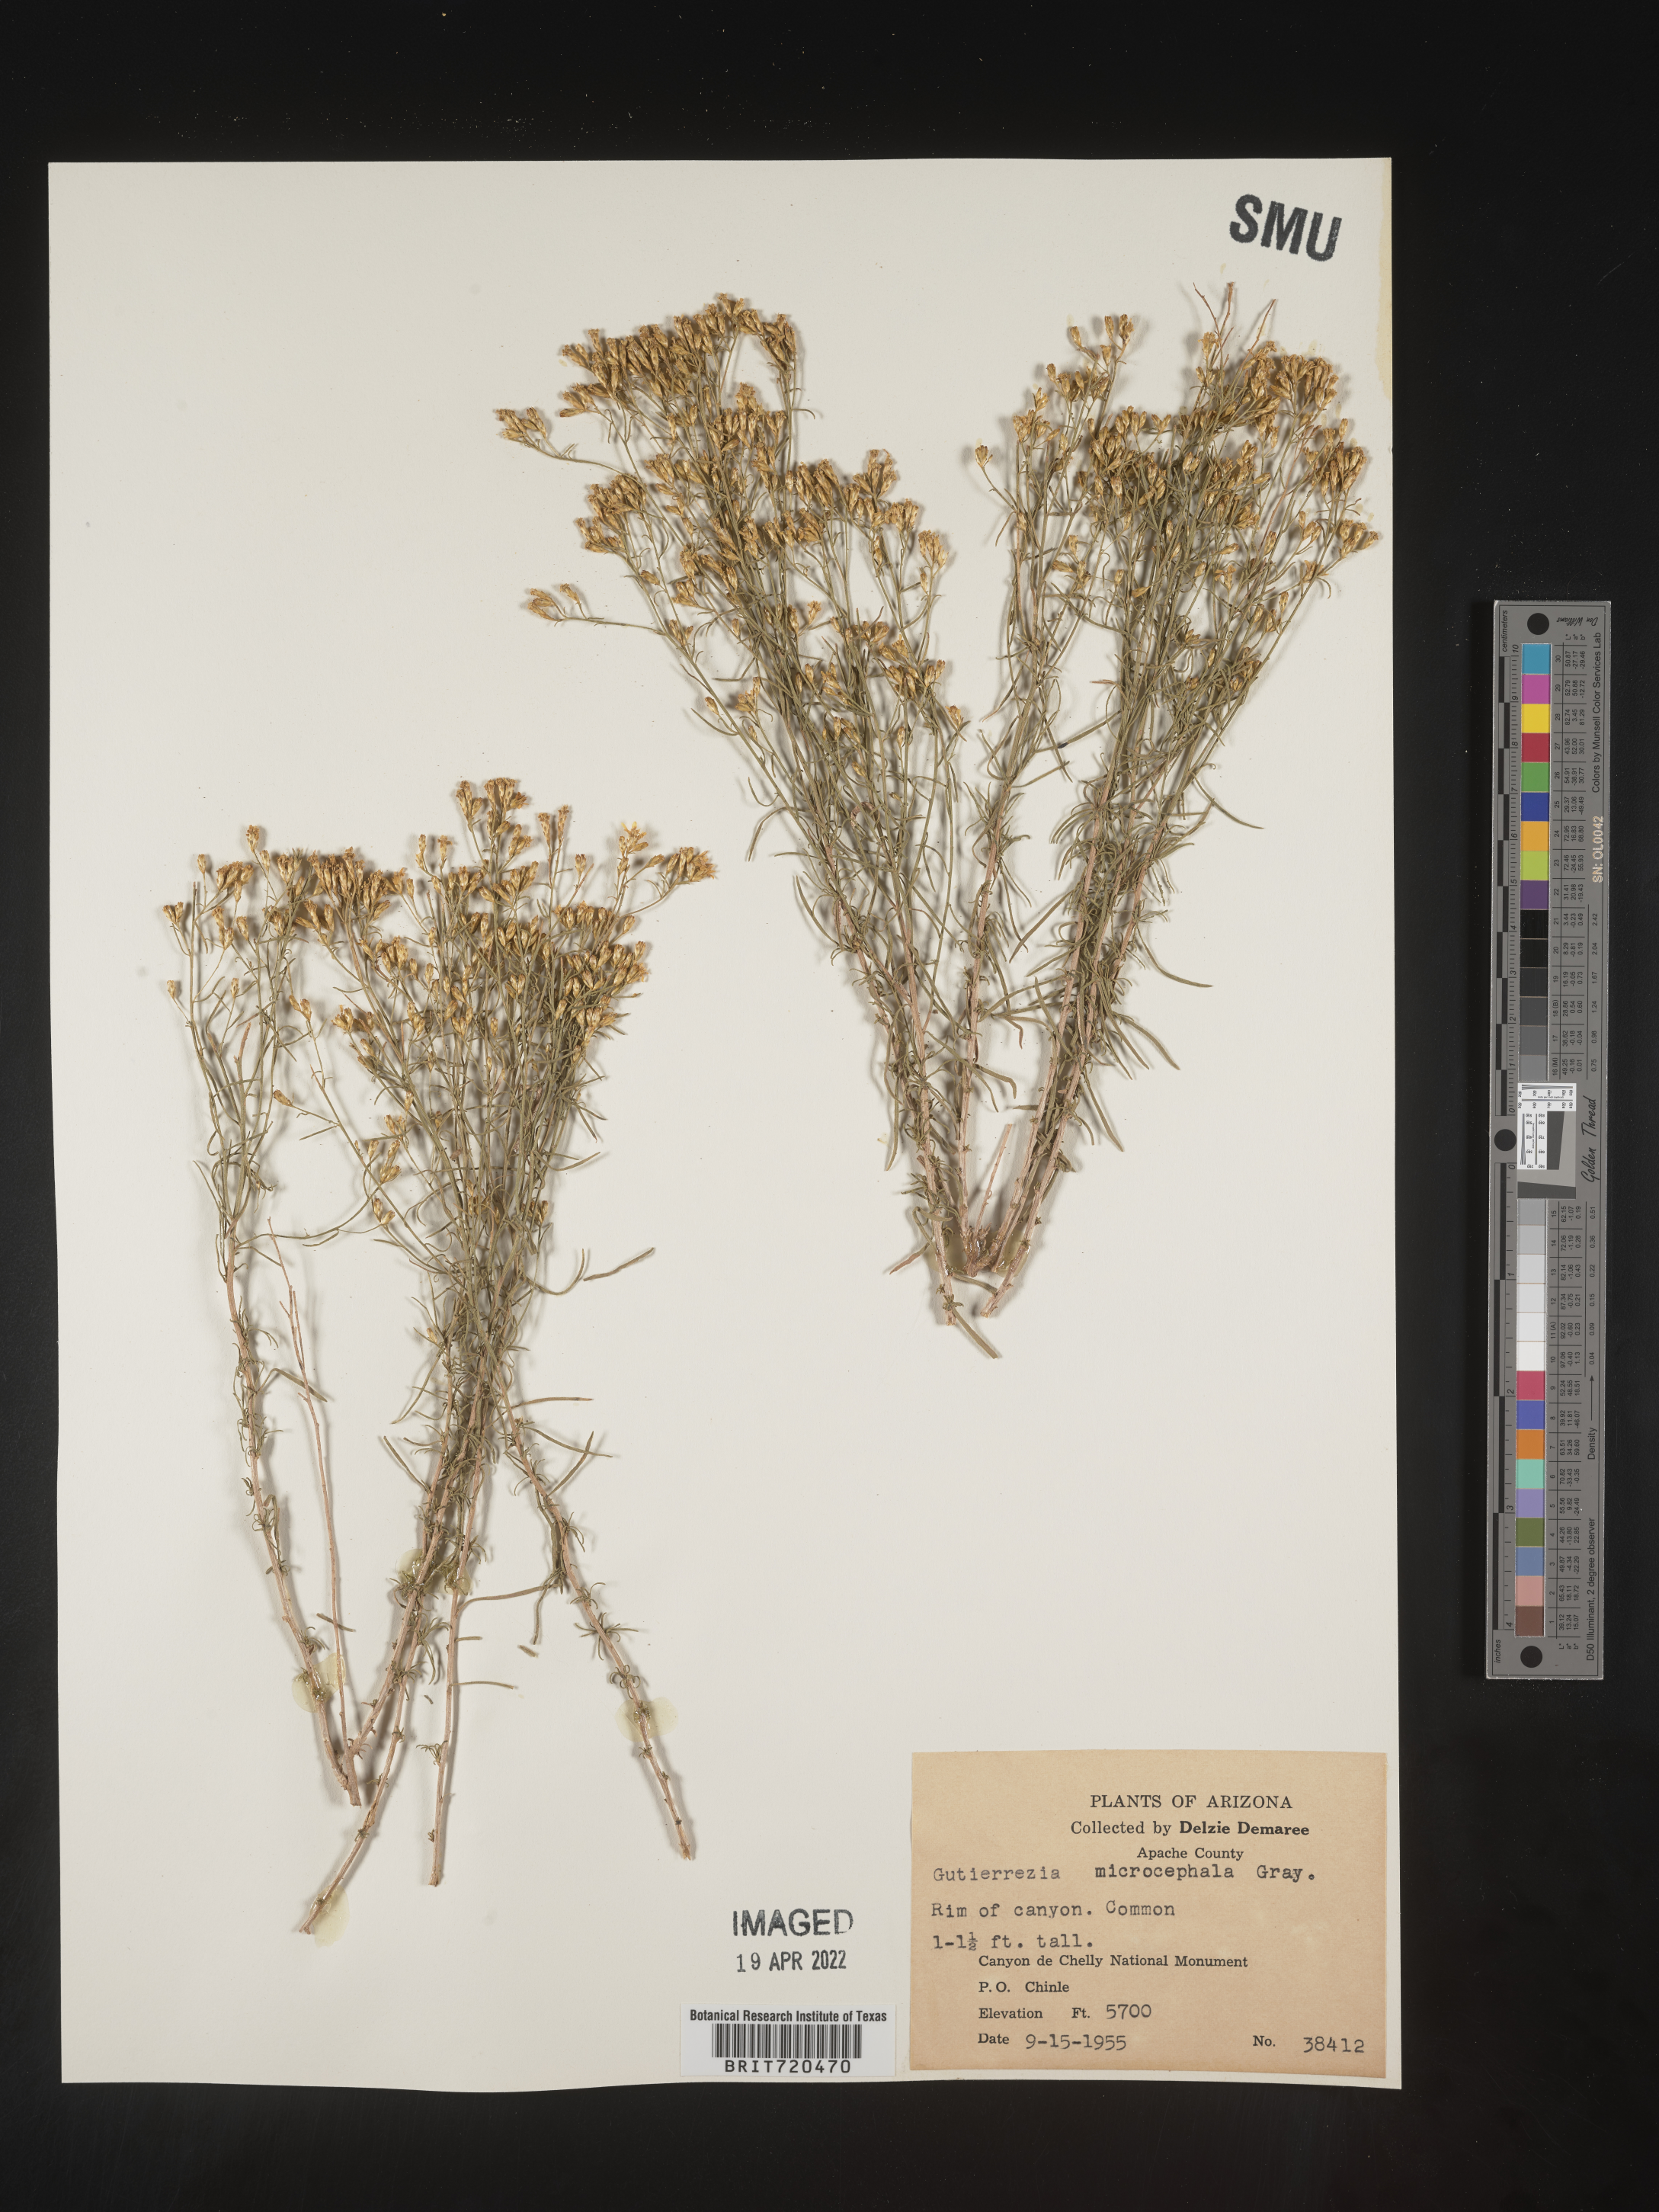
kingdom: Plantae
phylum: Tracheophyta
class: Magnoliopsida
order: Asterales
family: Asteraceae
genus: Gutierrezia
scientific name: Gutierrezia microcephala
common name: Thread snakeweed
